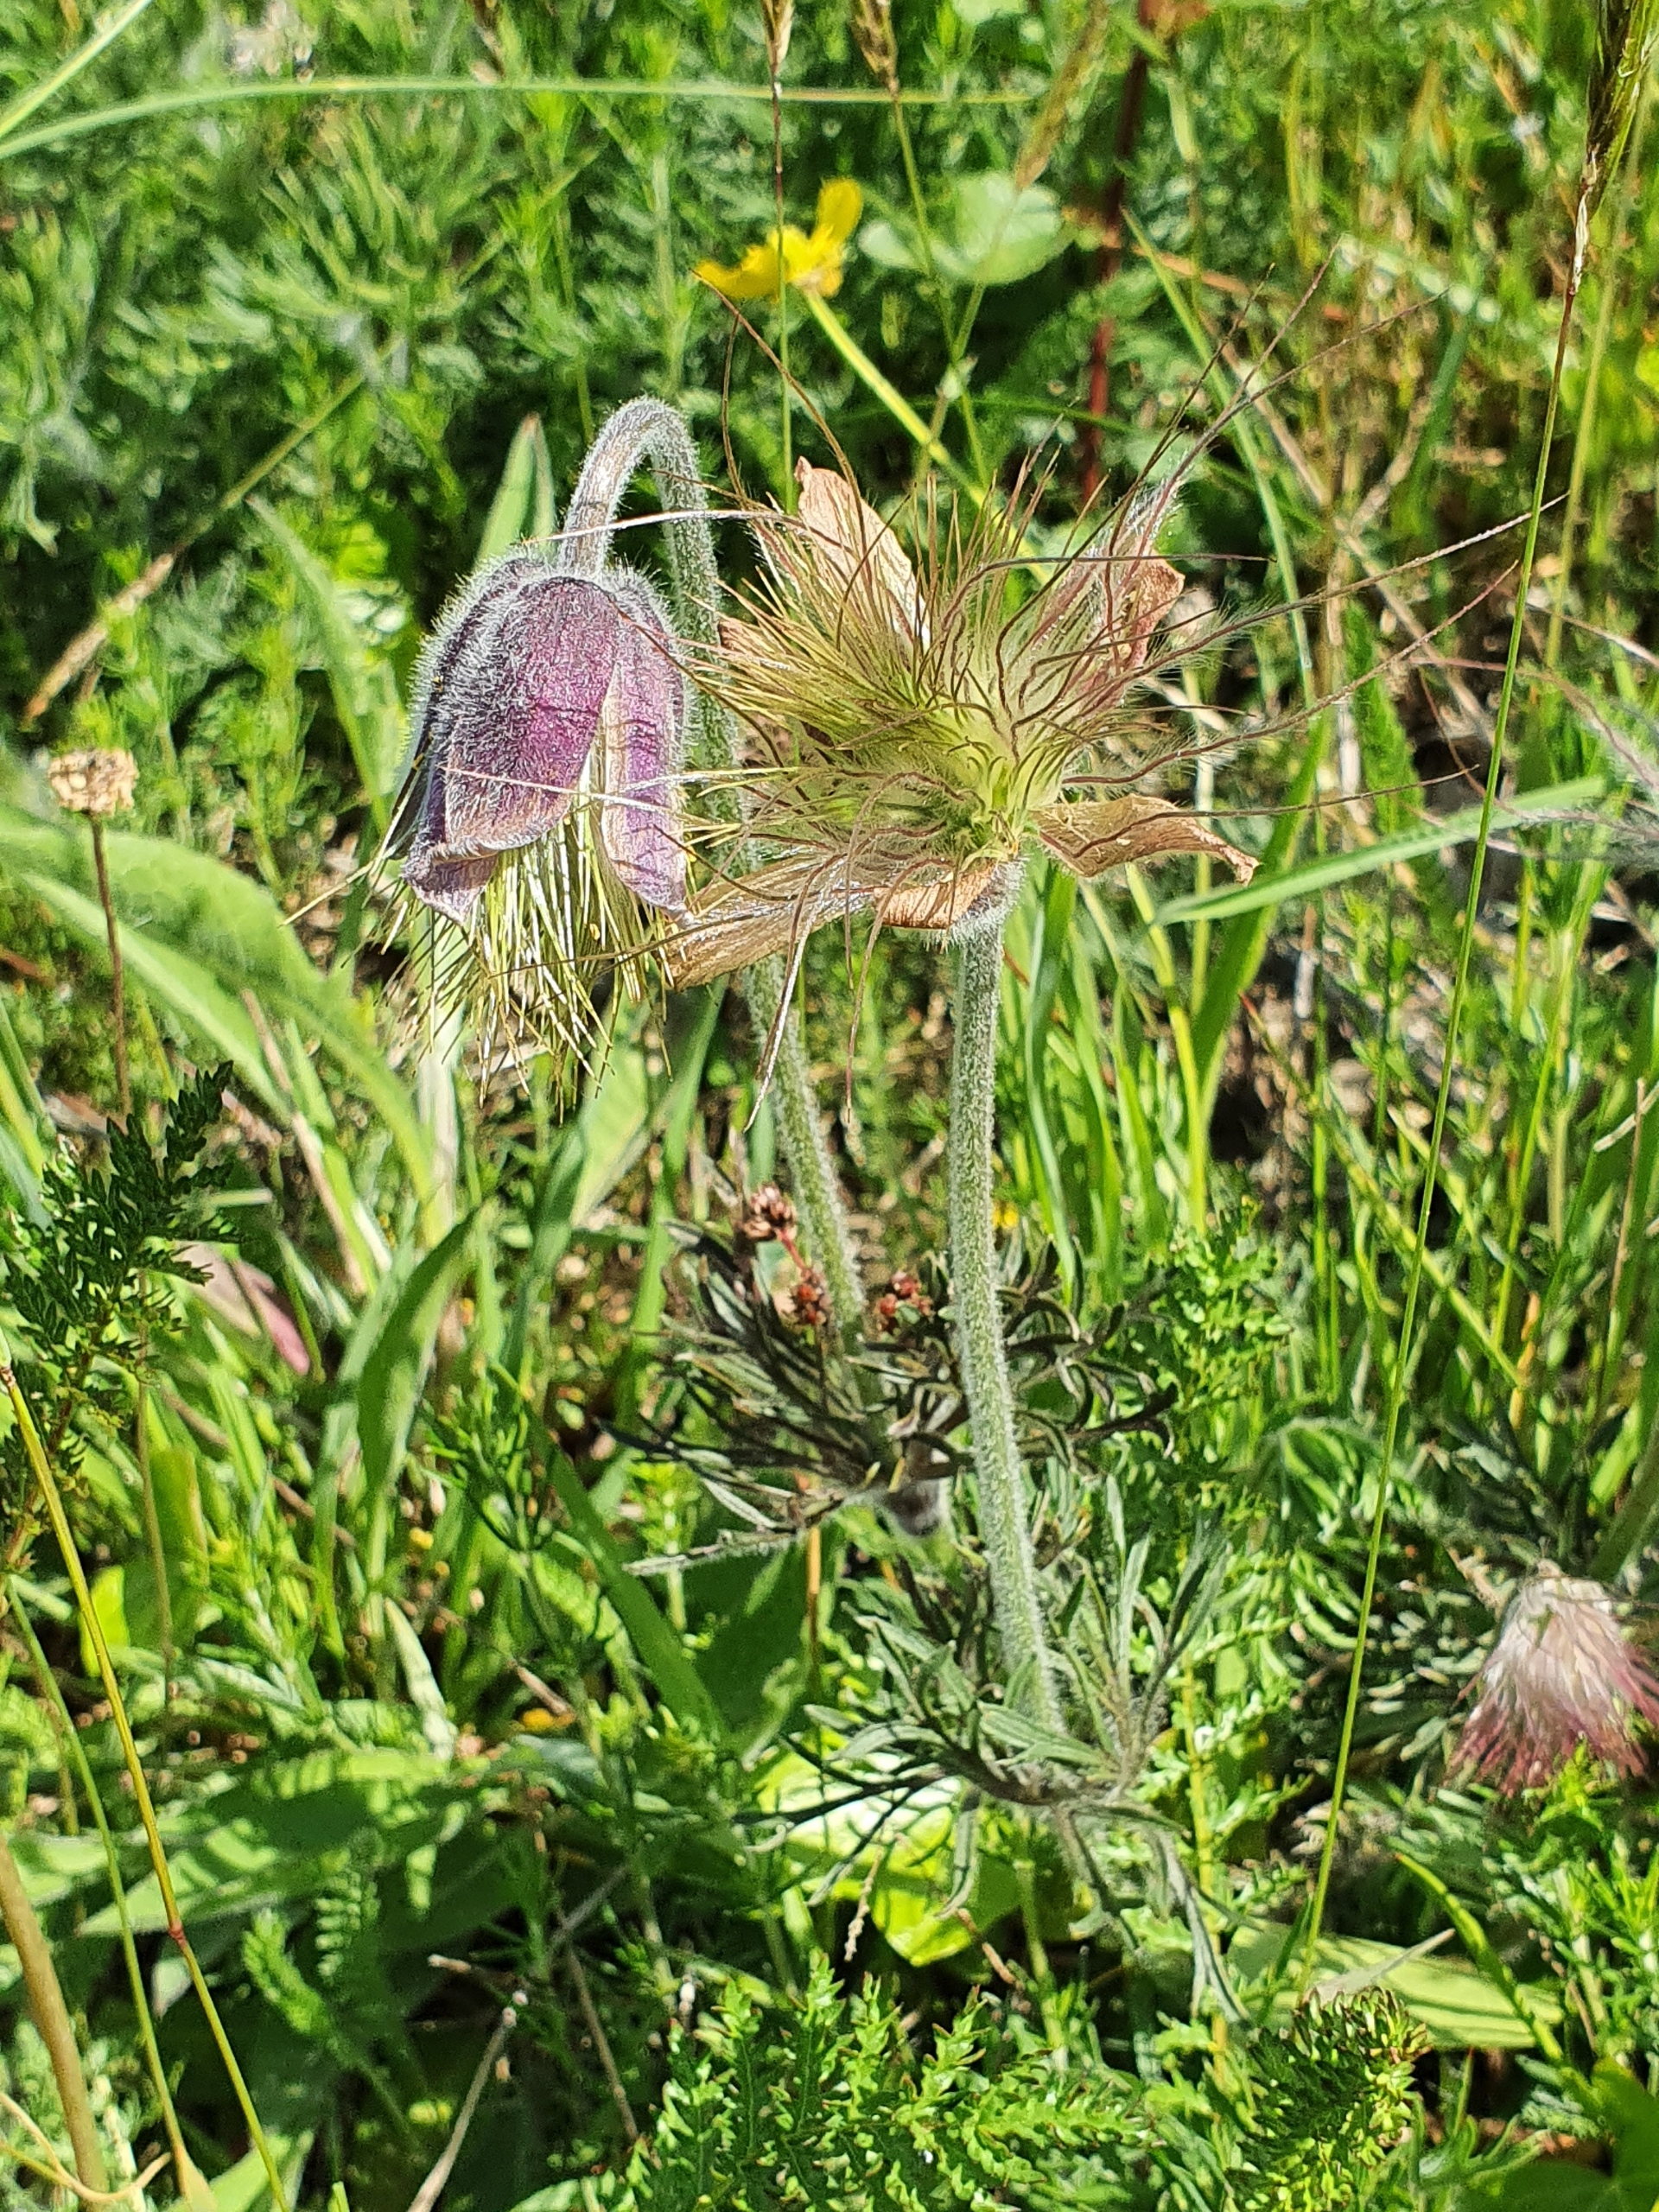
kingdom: Plantae
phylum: Tracheophyta
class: Magnoliopsida
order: Ranunculales
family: Ranunculaceae
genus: Pulsatilla
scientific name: Pulsatilla pratensis
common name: Nikkende kobjælde
